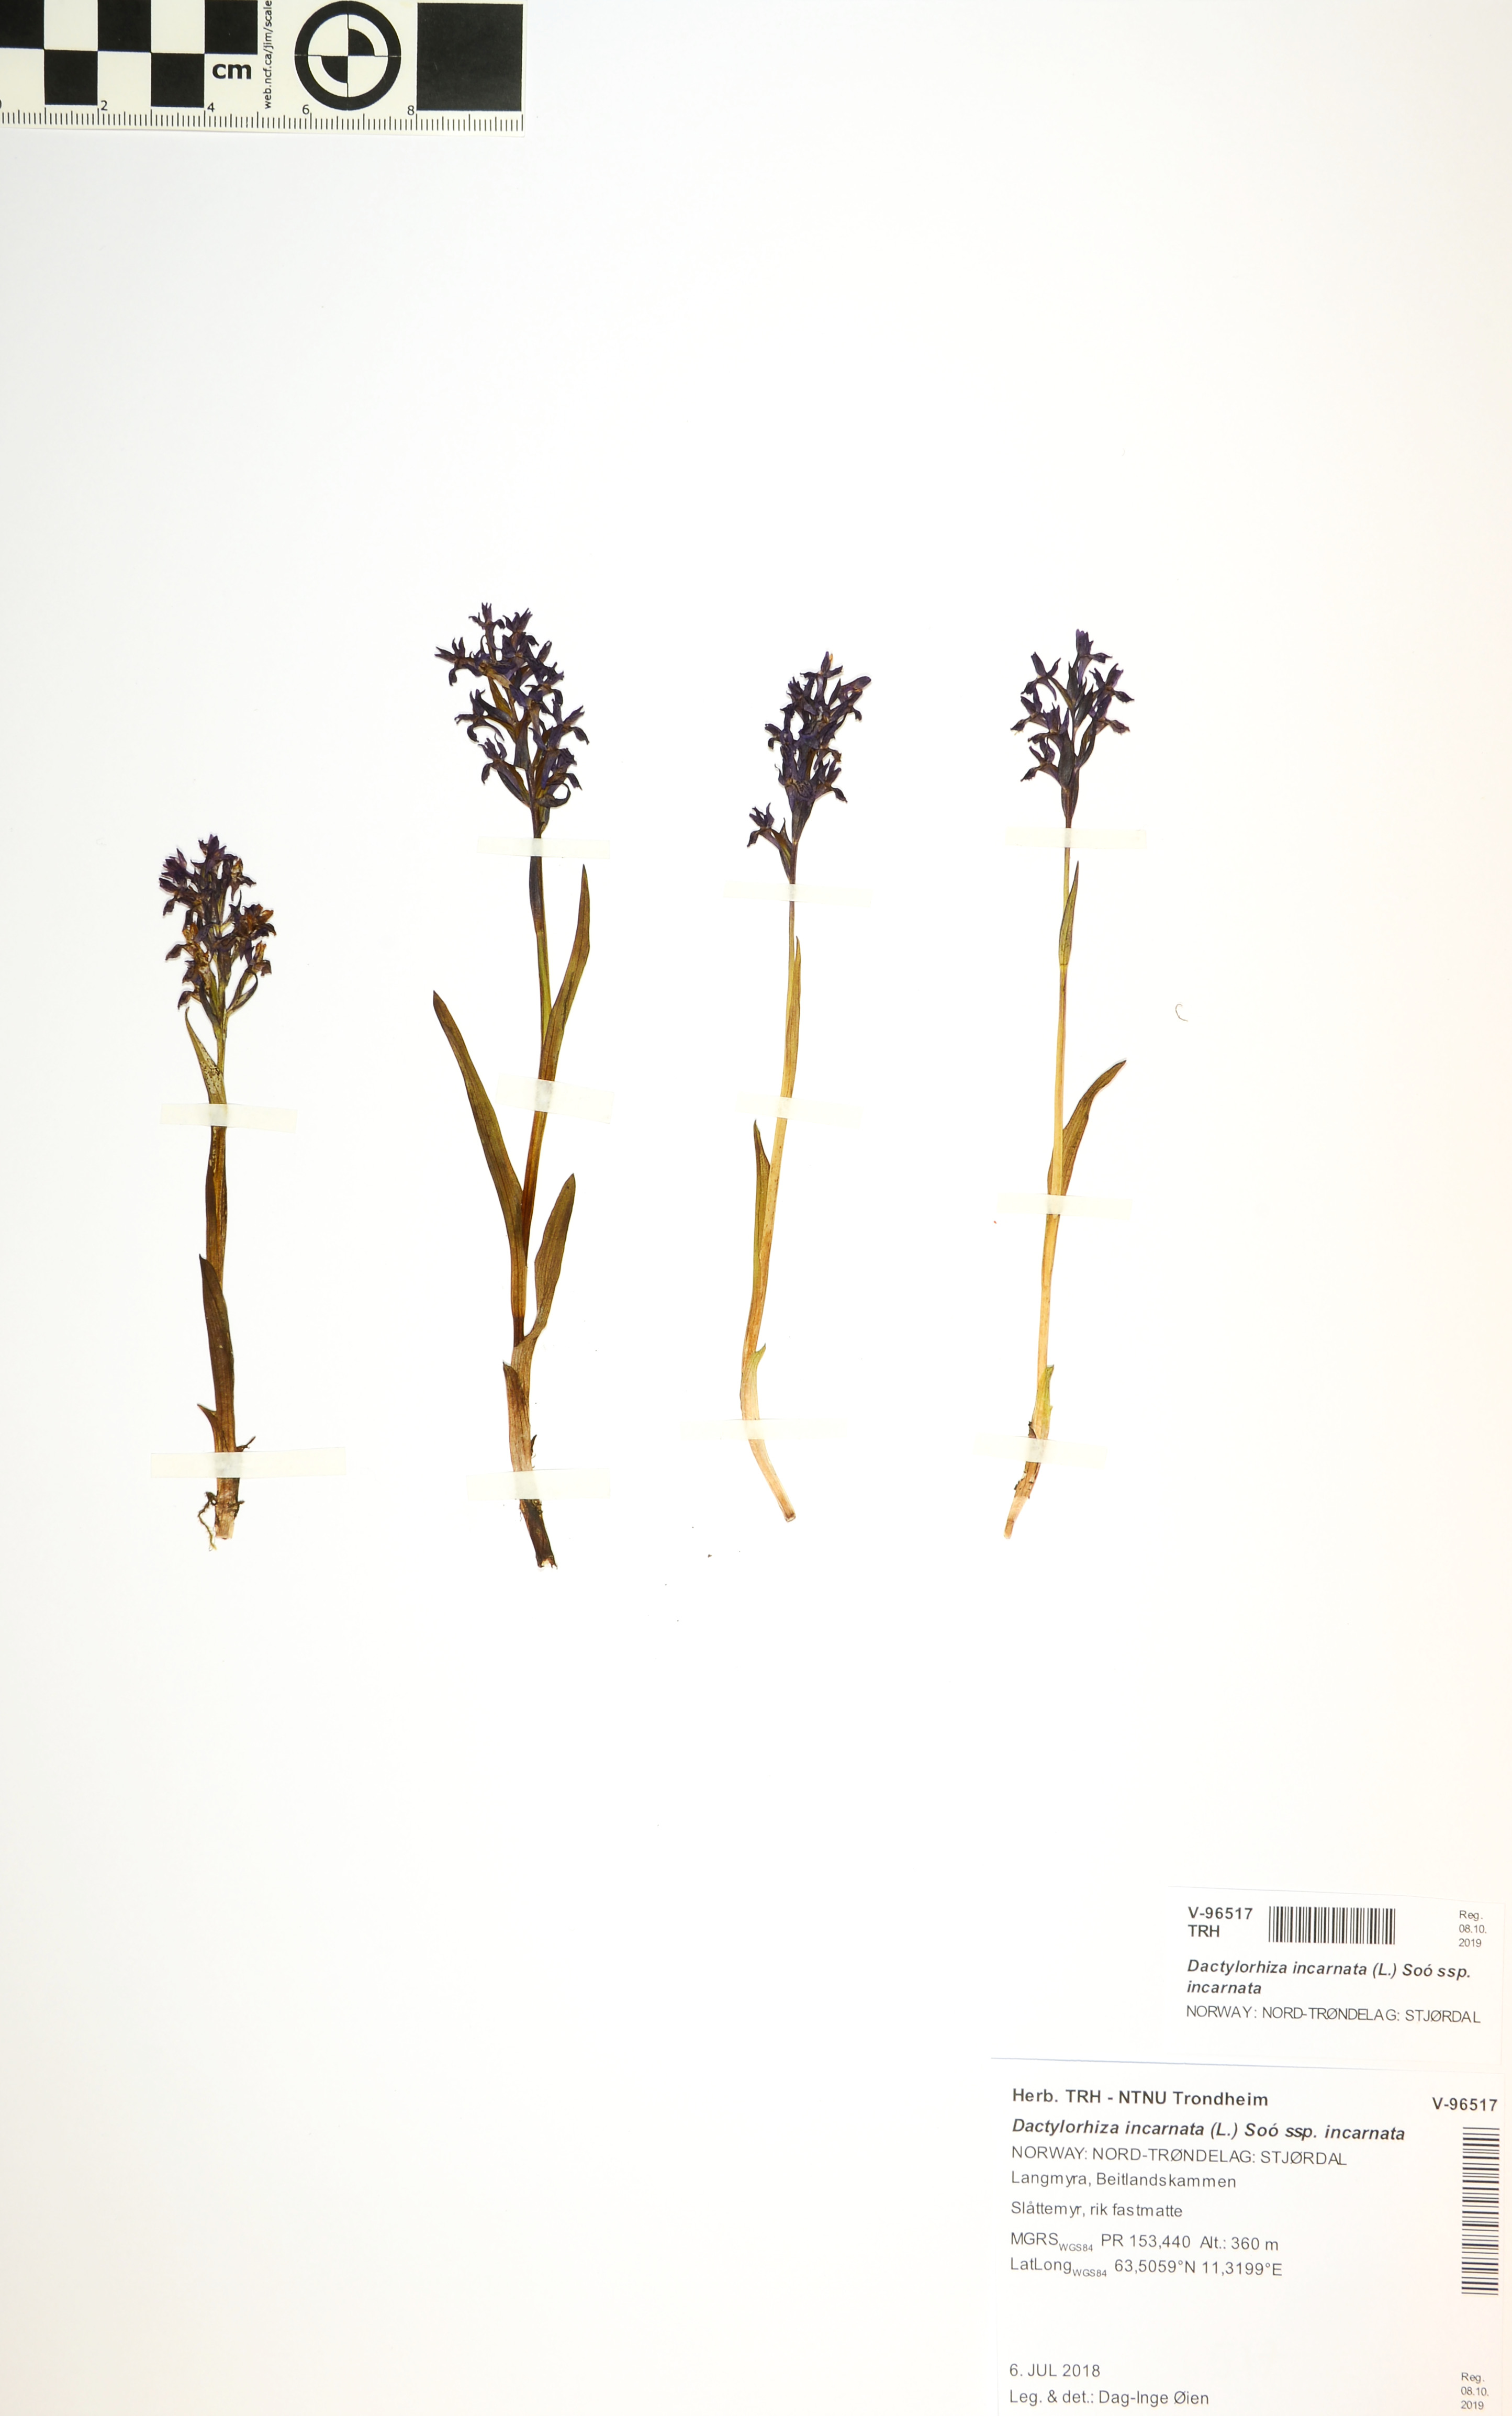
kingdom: Plantae
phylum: Tracheophyta
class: Liliopsida
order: Asparagales
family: Orchidaceae
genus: Dactylorhiza
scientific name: Dactylorhiza incarnata
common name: Early marsh-orchid
